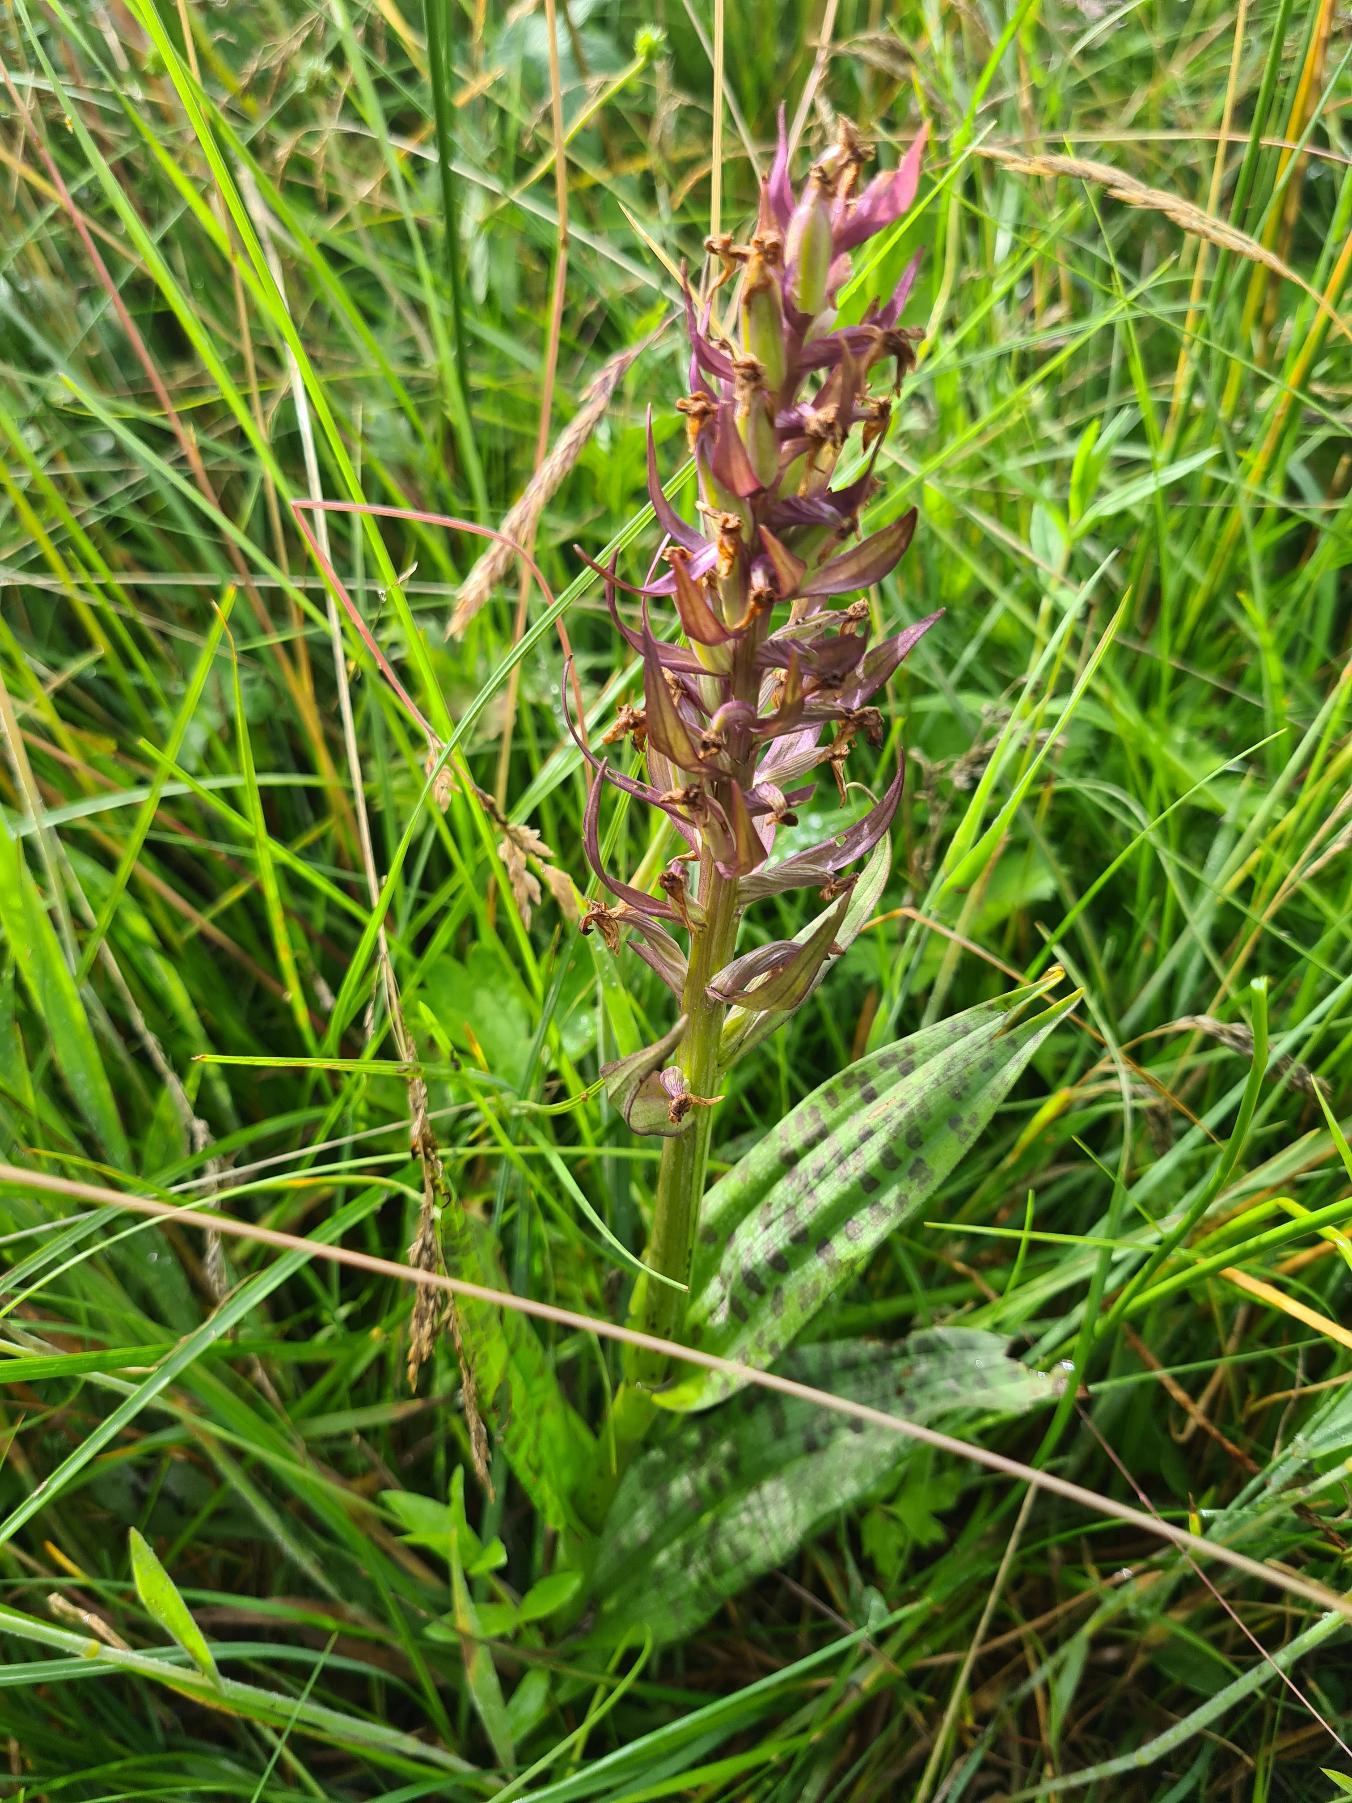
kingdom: Plantae
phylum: Tracheophyta
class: Liliopsida
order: Asparagales
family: Orchidaceae
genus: Dactylorhiza
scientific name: Dactylorhiza majalis
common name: Maj-gøgeurt
